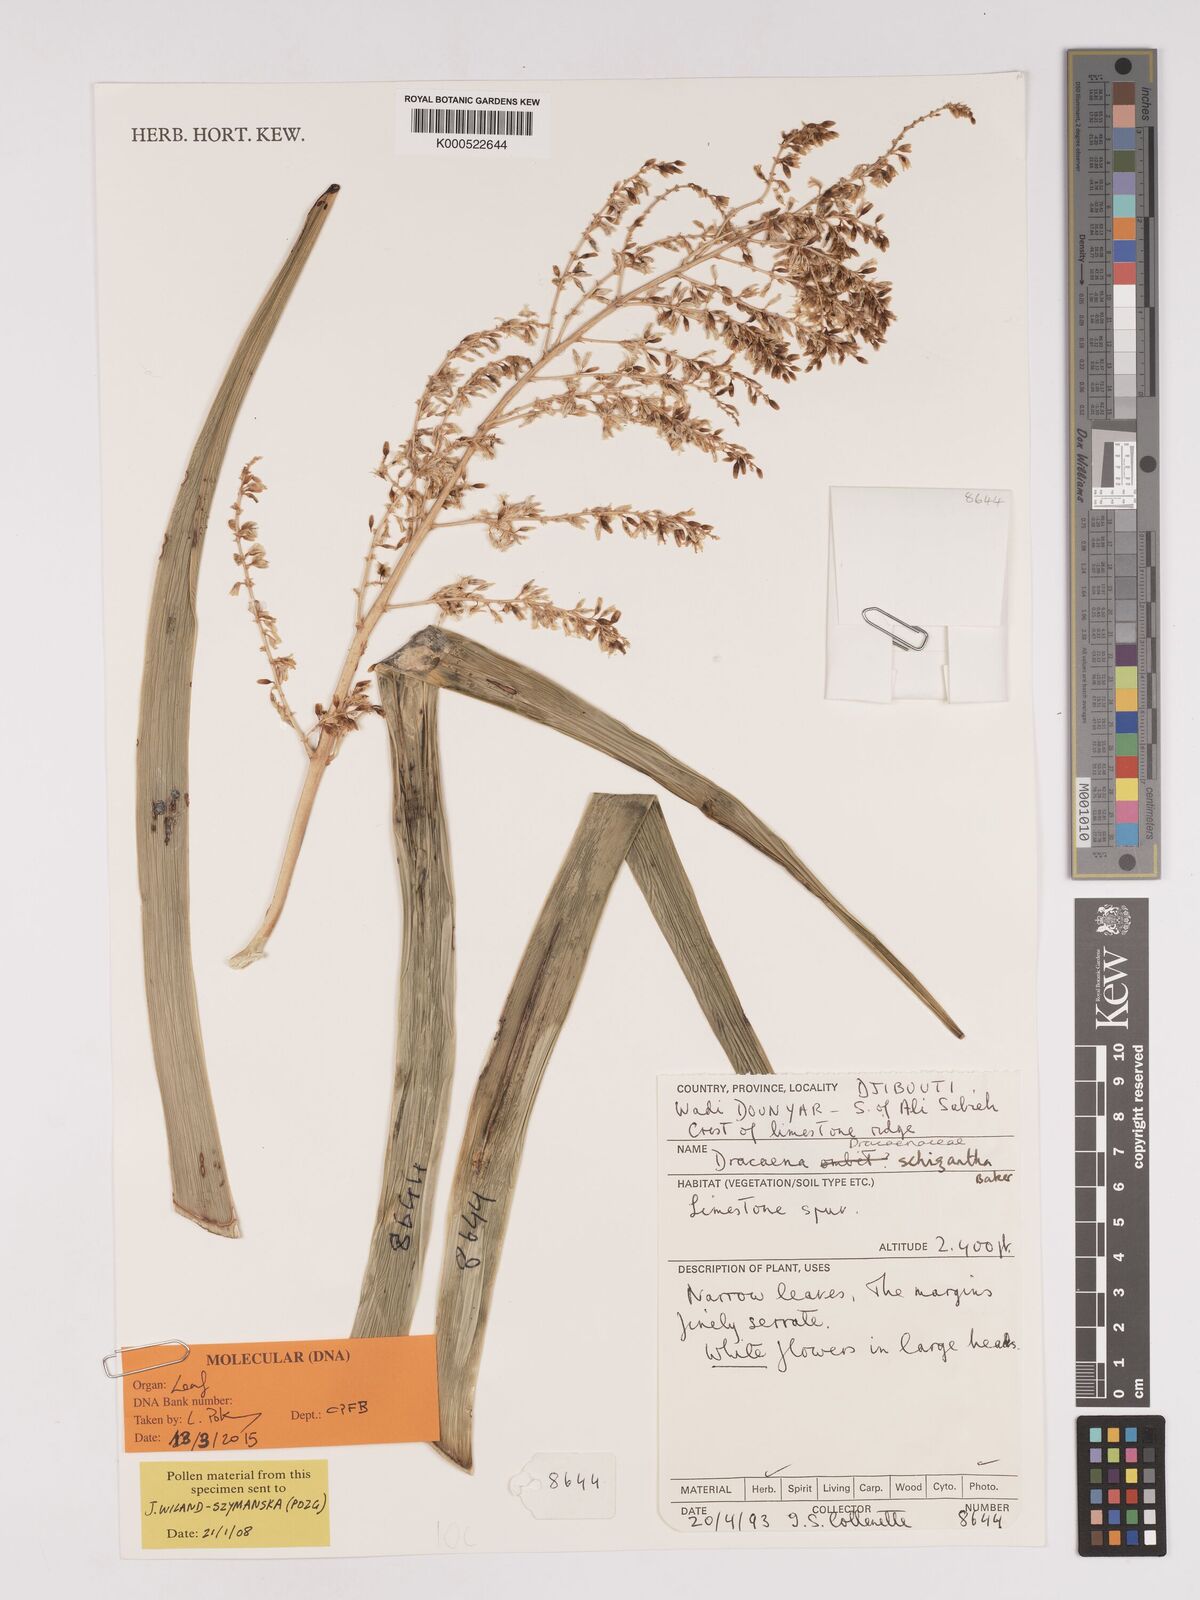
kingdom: Plantae
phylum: Tracheophyta
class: Liliopsida
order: Asparagales
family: Asparagaceae
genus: Dracaena
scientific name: Dracaena ombet
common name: Gabal elba dragon tree
